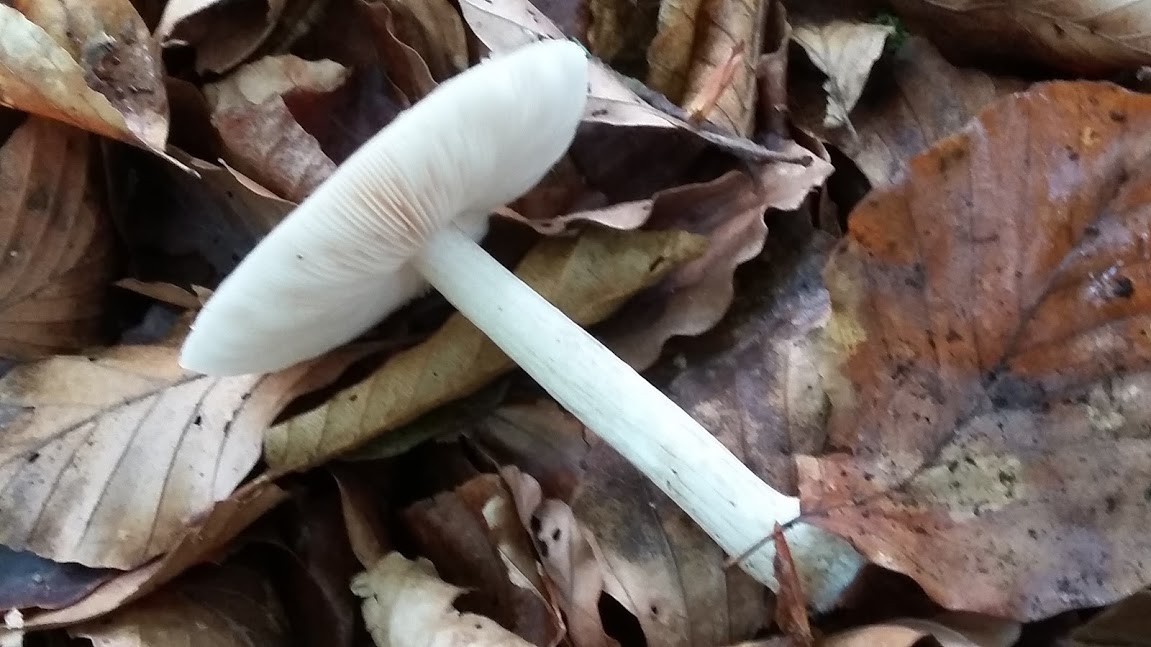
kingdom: Fungi
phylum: Basidiomycota
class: Agaricomycetes
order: Agaricales
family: Pluteaceae
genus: Pluteus
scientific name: Pluteus cervinus
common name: sodfarvet skærmhat
